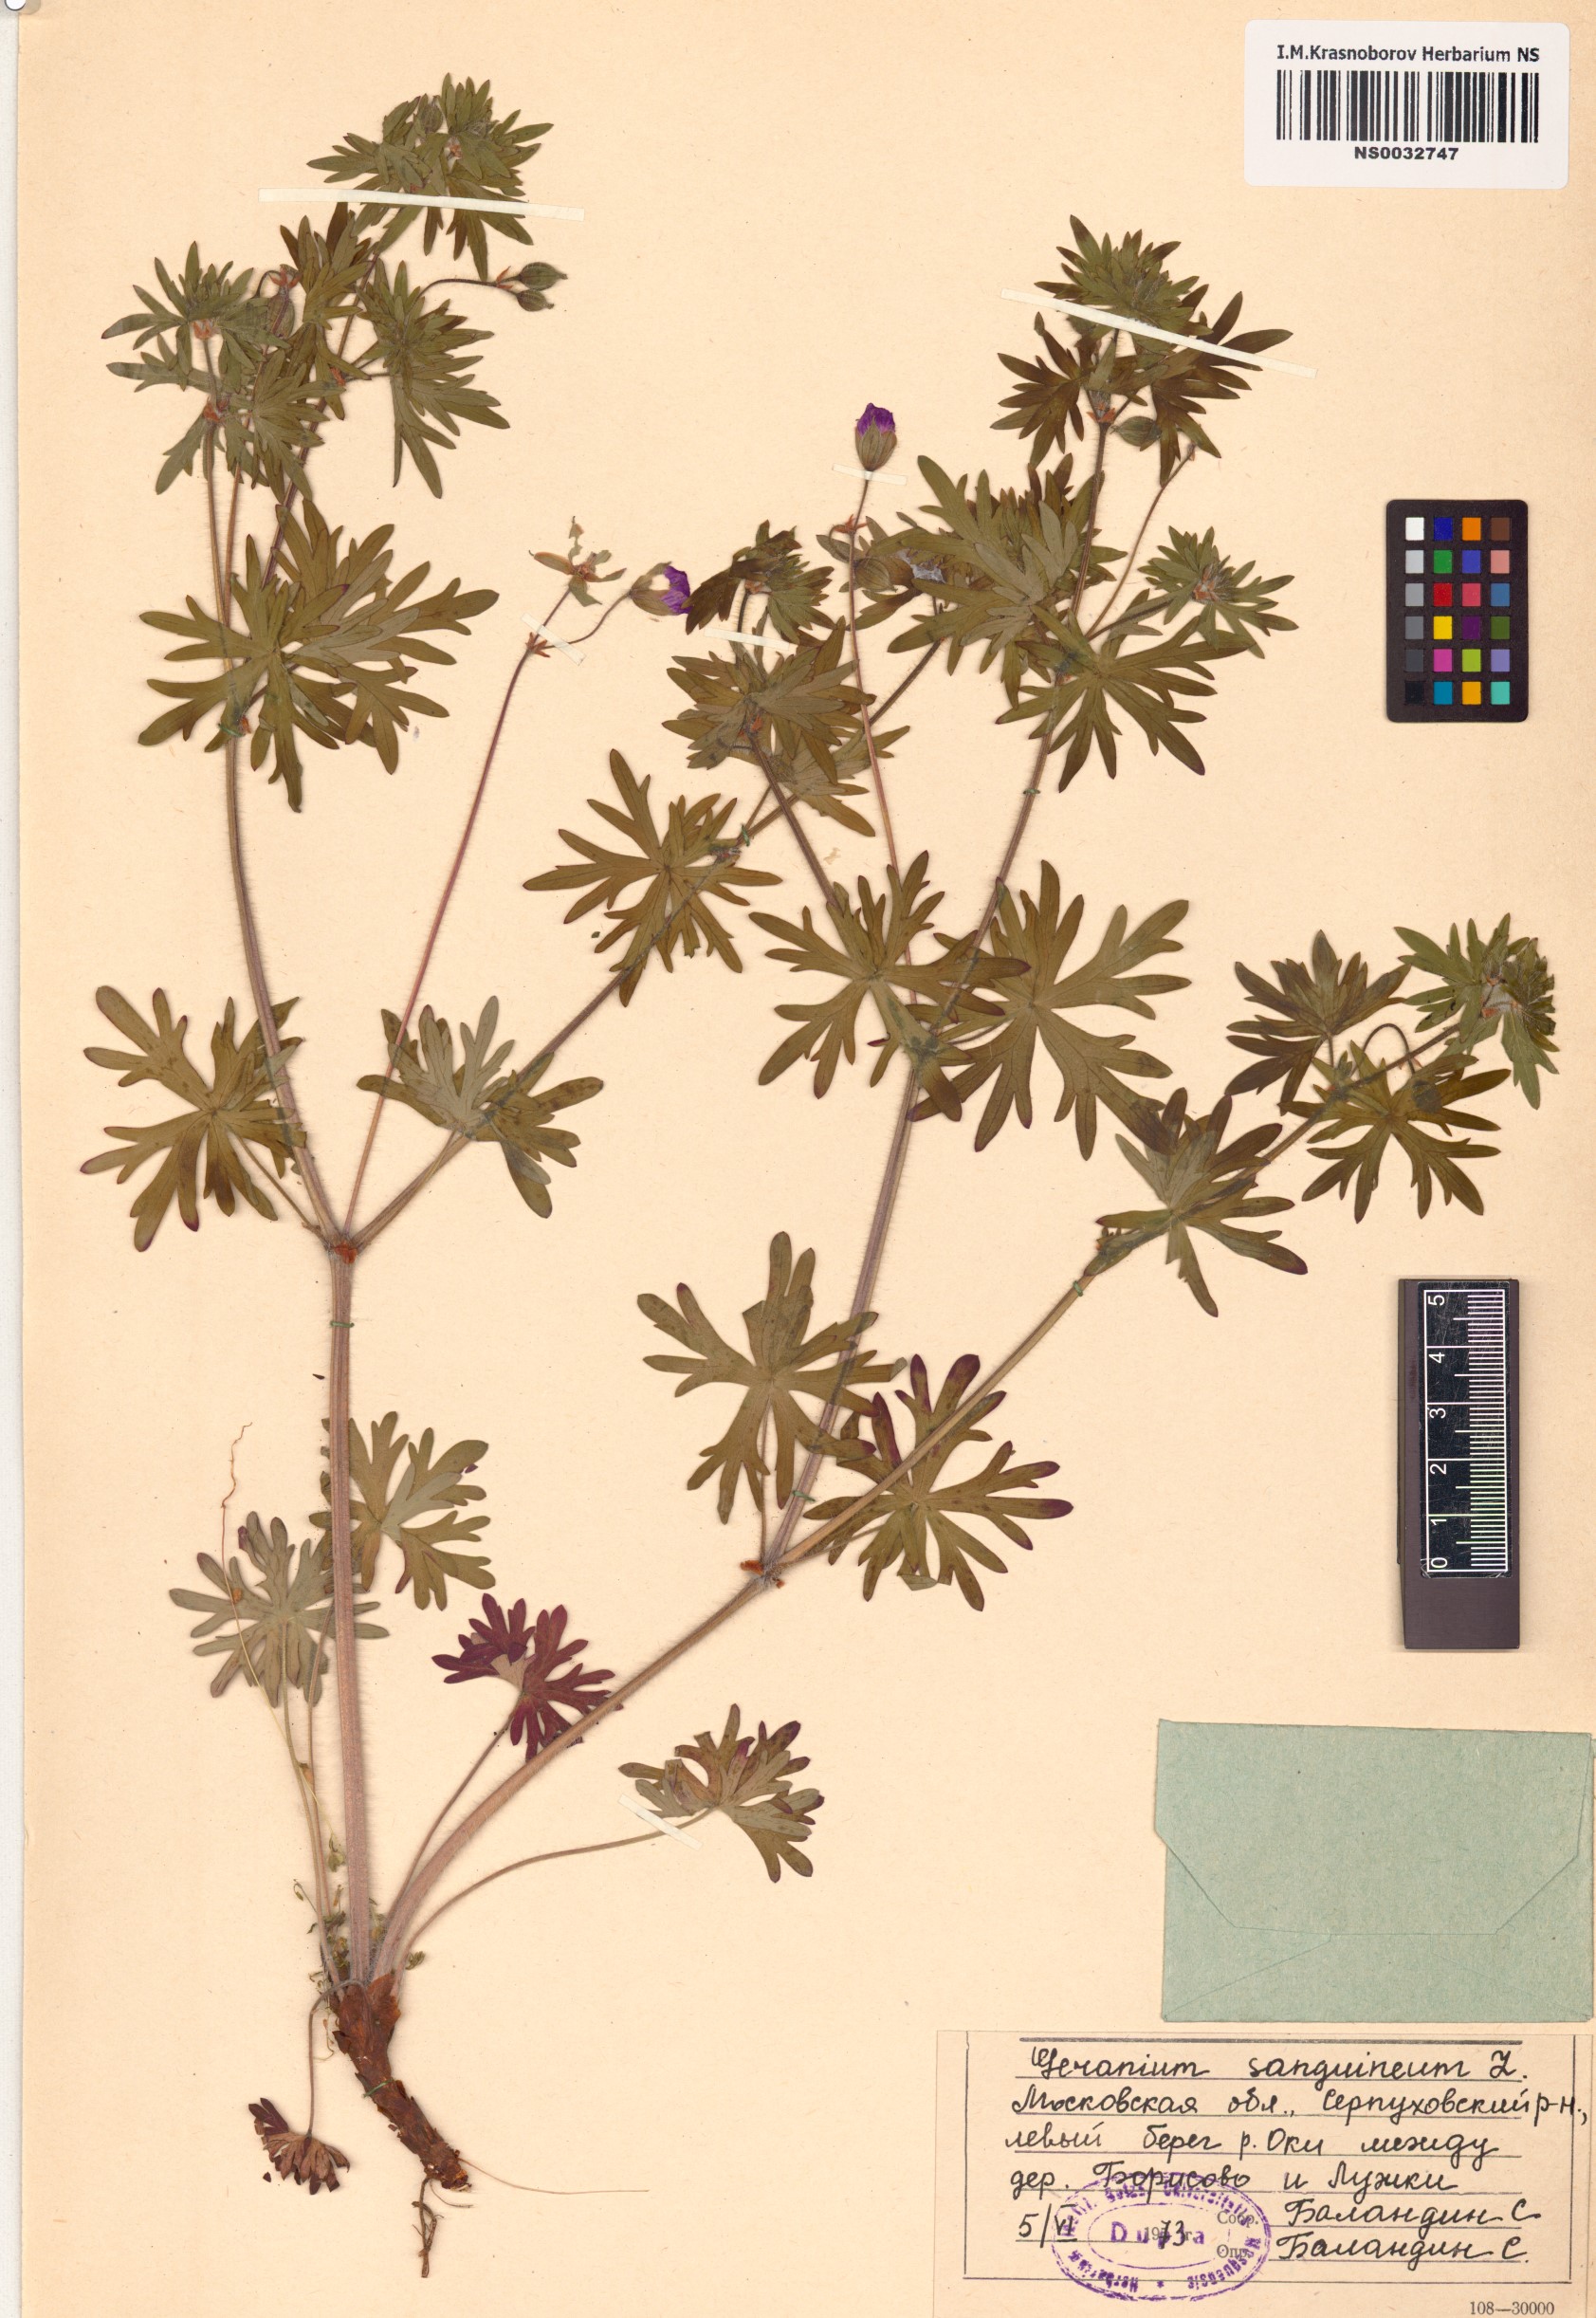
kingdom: Plantae
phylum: Tracheophyta
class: Magnoliopsida
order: Geraniales
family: Geraniaceae
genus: Geranium
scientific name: Geranium sanguineum
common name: Bloody crane's-bill
